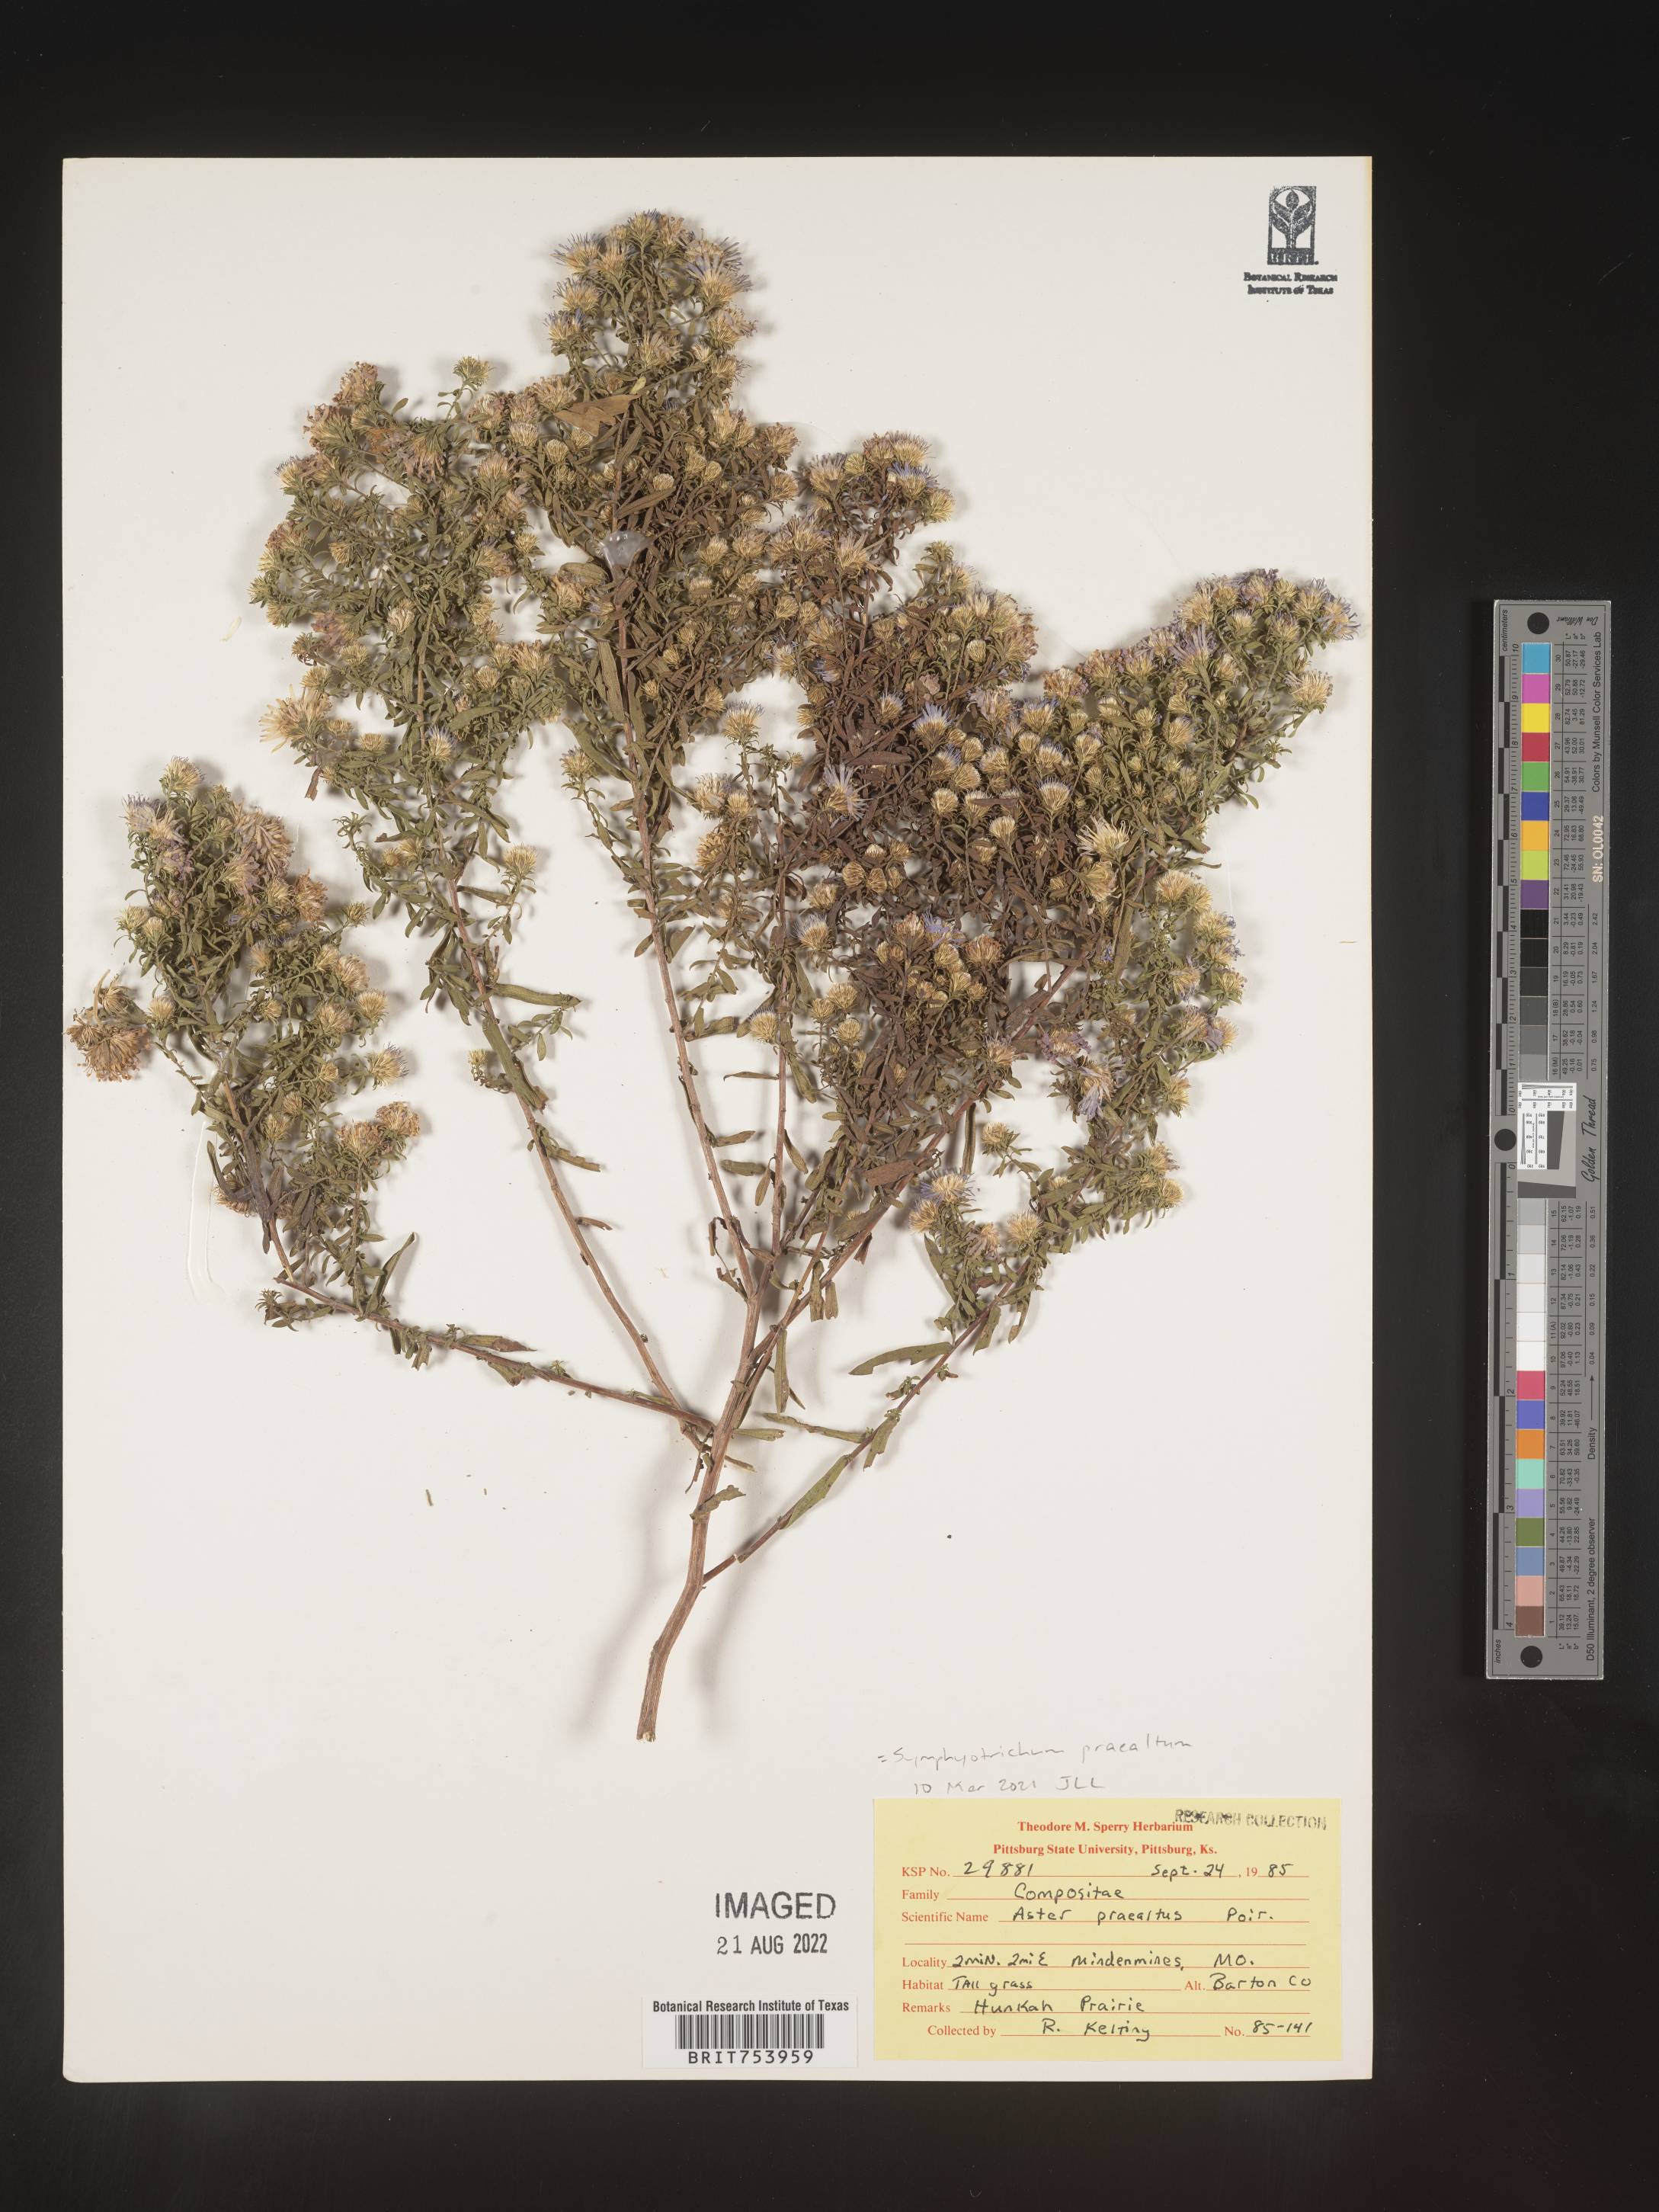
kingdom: Plantae
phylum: Tracheophyta
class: Magnoliopsida
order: Asterales
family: Asteraceae
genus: Symphyotrichum
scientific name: Symphyotrichum praealtum
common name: Willow aster
